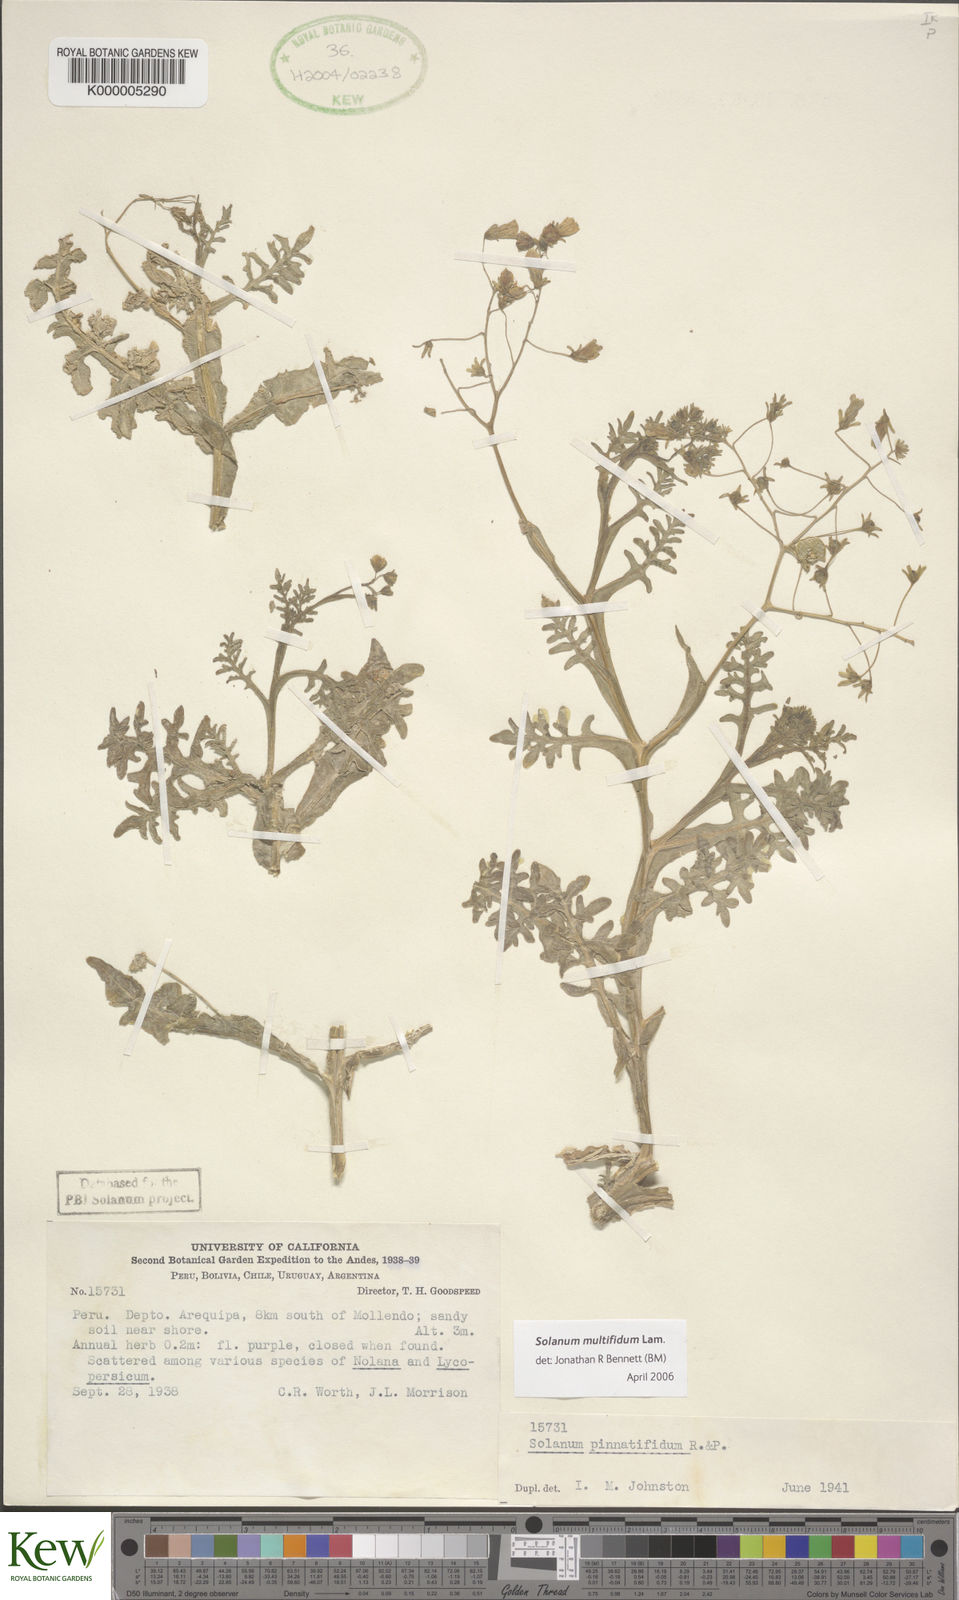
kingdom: Plantae
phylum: Tracheophyta
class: Magnoliopsida
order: Solanales
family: Solanaceae
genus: Solanum
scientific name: Solanum multifidum
